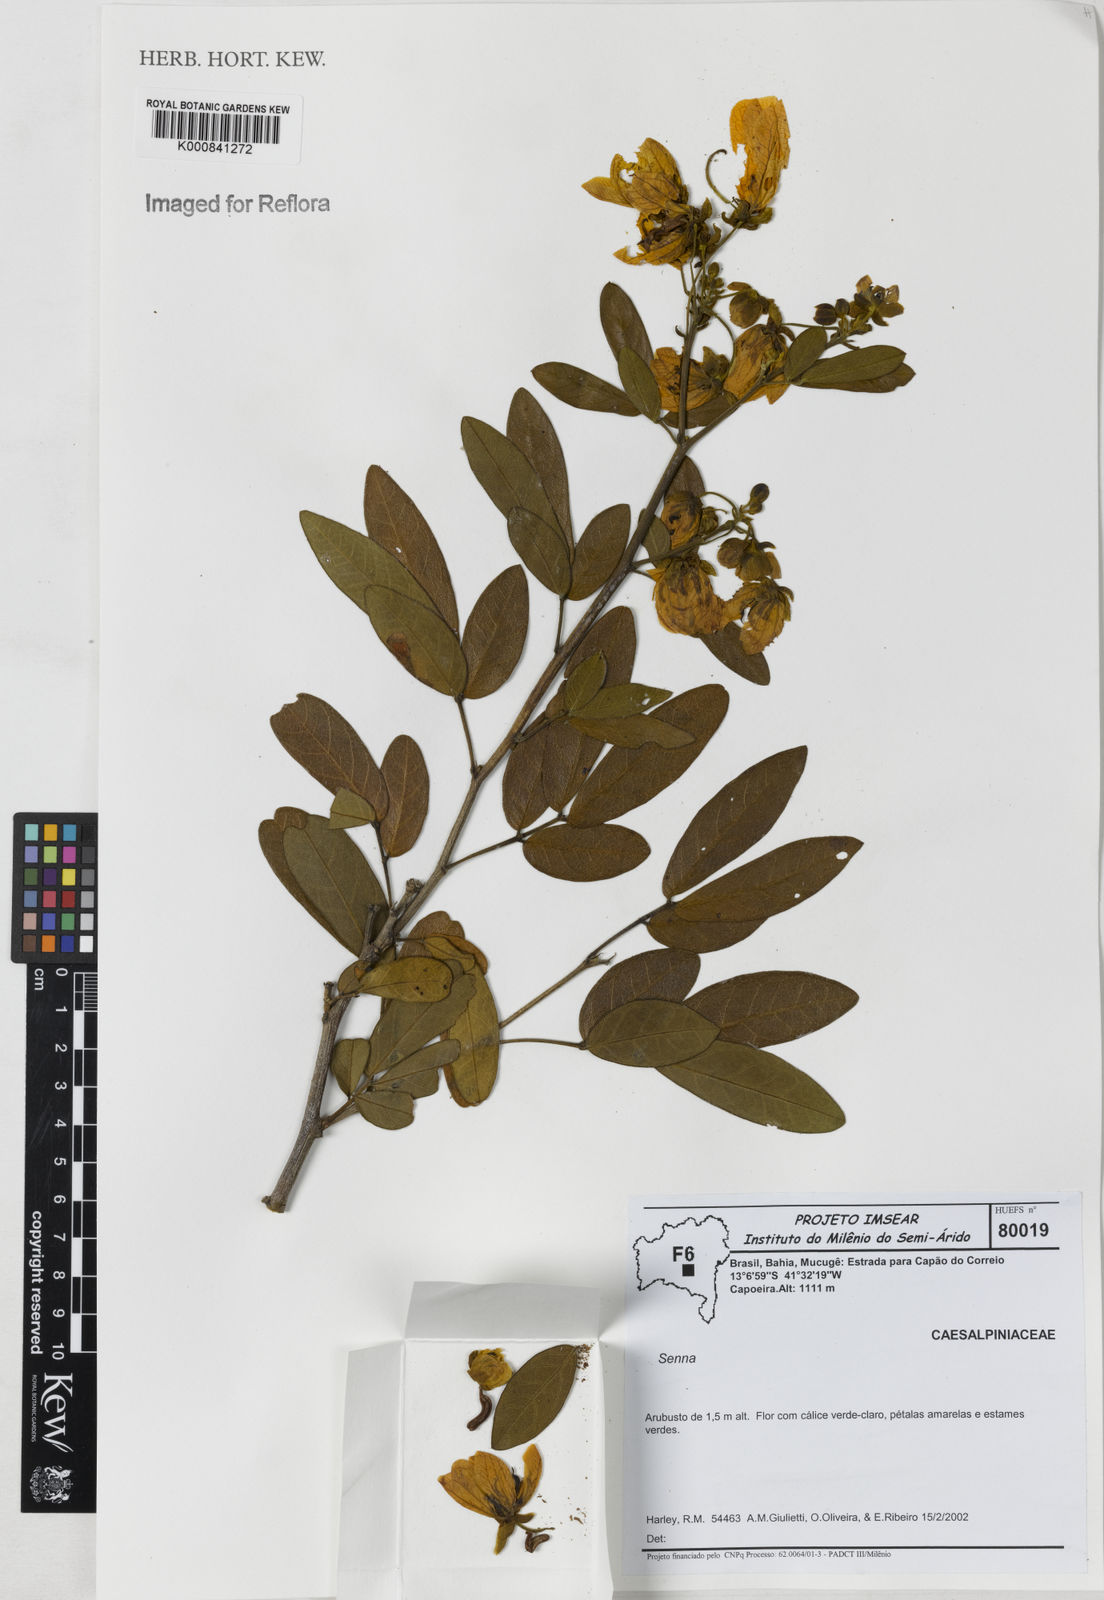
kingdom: Plantae
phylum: Tracheophyta
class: Magnoliopsida
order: Fabales
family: Fabaceae
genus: Senna
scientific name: Senna macranthera
